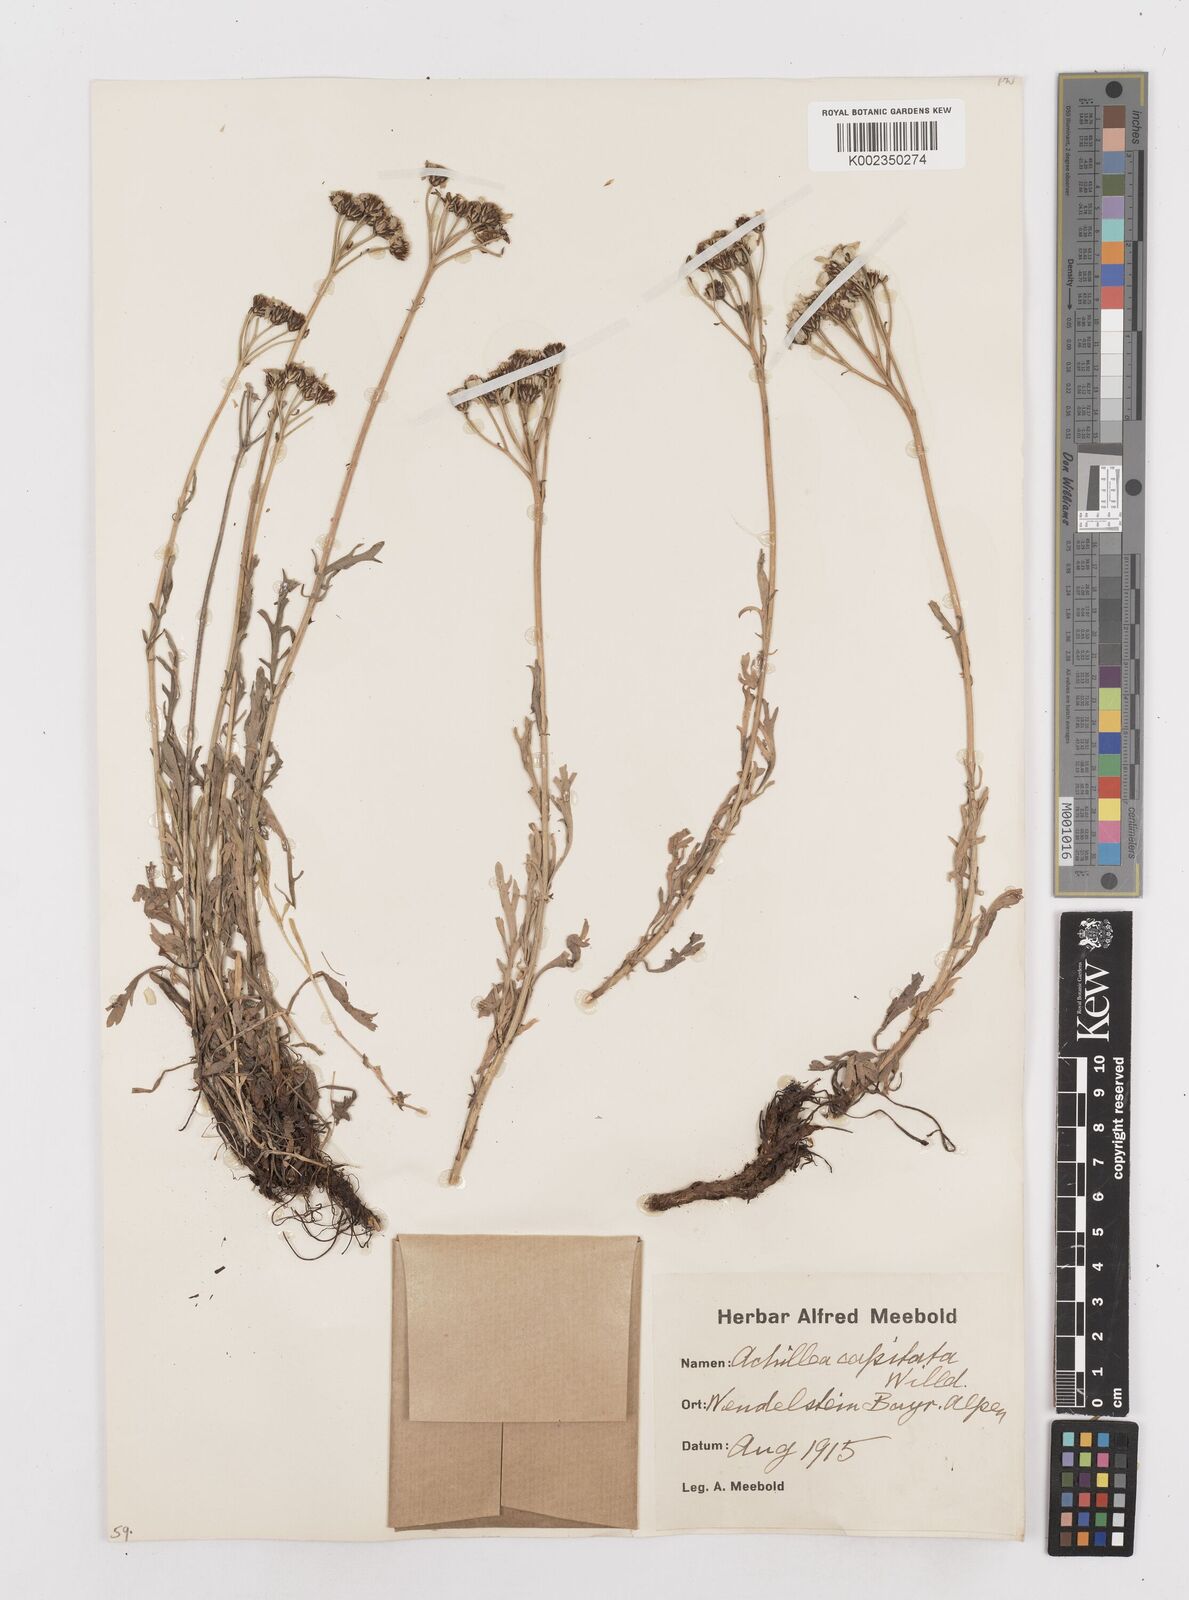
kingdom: Plantae
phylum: Tracheophyta
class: Magnoliopsida
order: Asterales
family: Asteraceae
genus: Achillea
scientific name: Achillea clavennae
